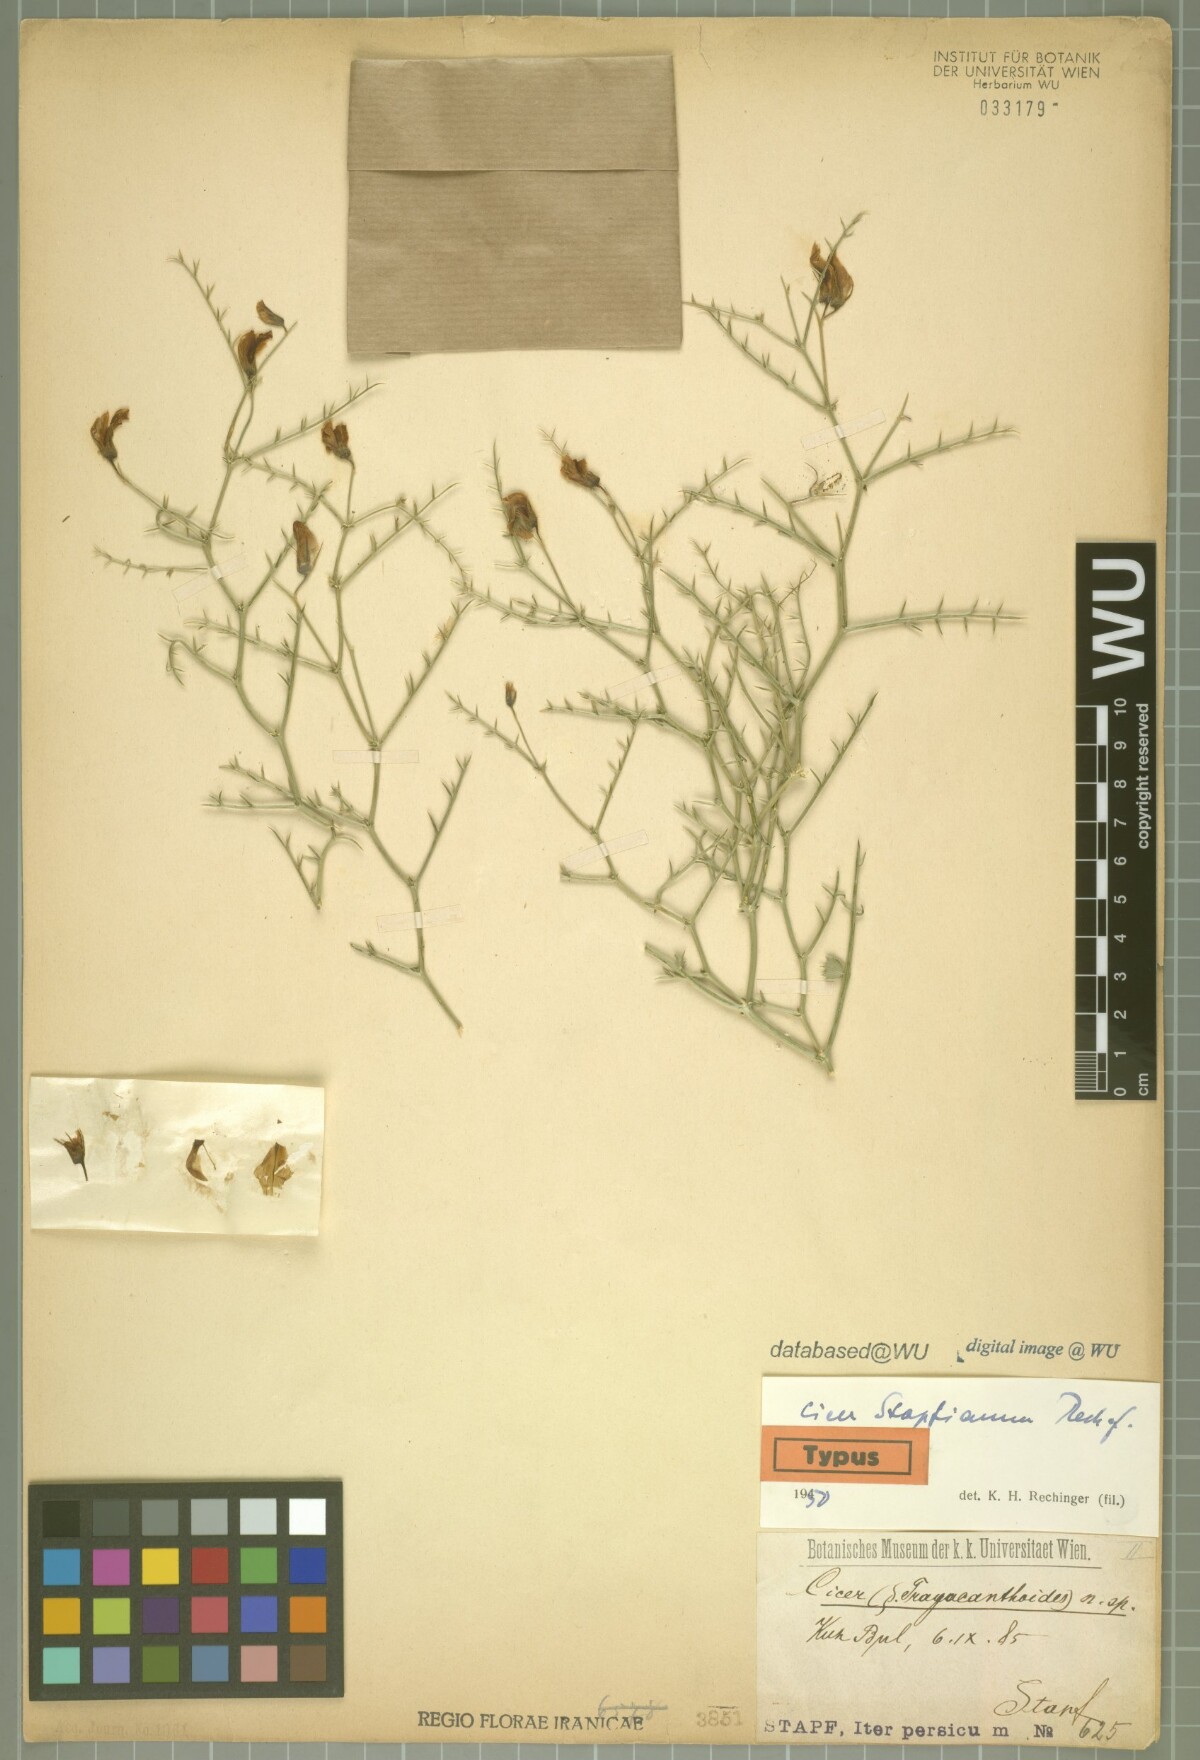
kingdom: Plantae
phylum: Tracheophyta
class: Magnoliopsida
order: Fabales
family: Fabaceae
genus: Cicer
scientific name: Cicer stapfianum
